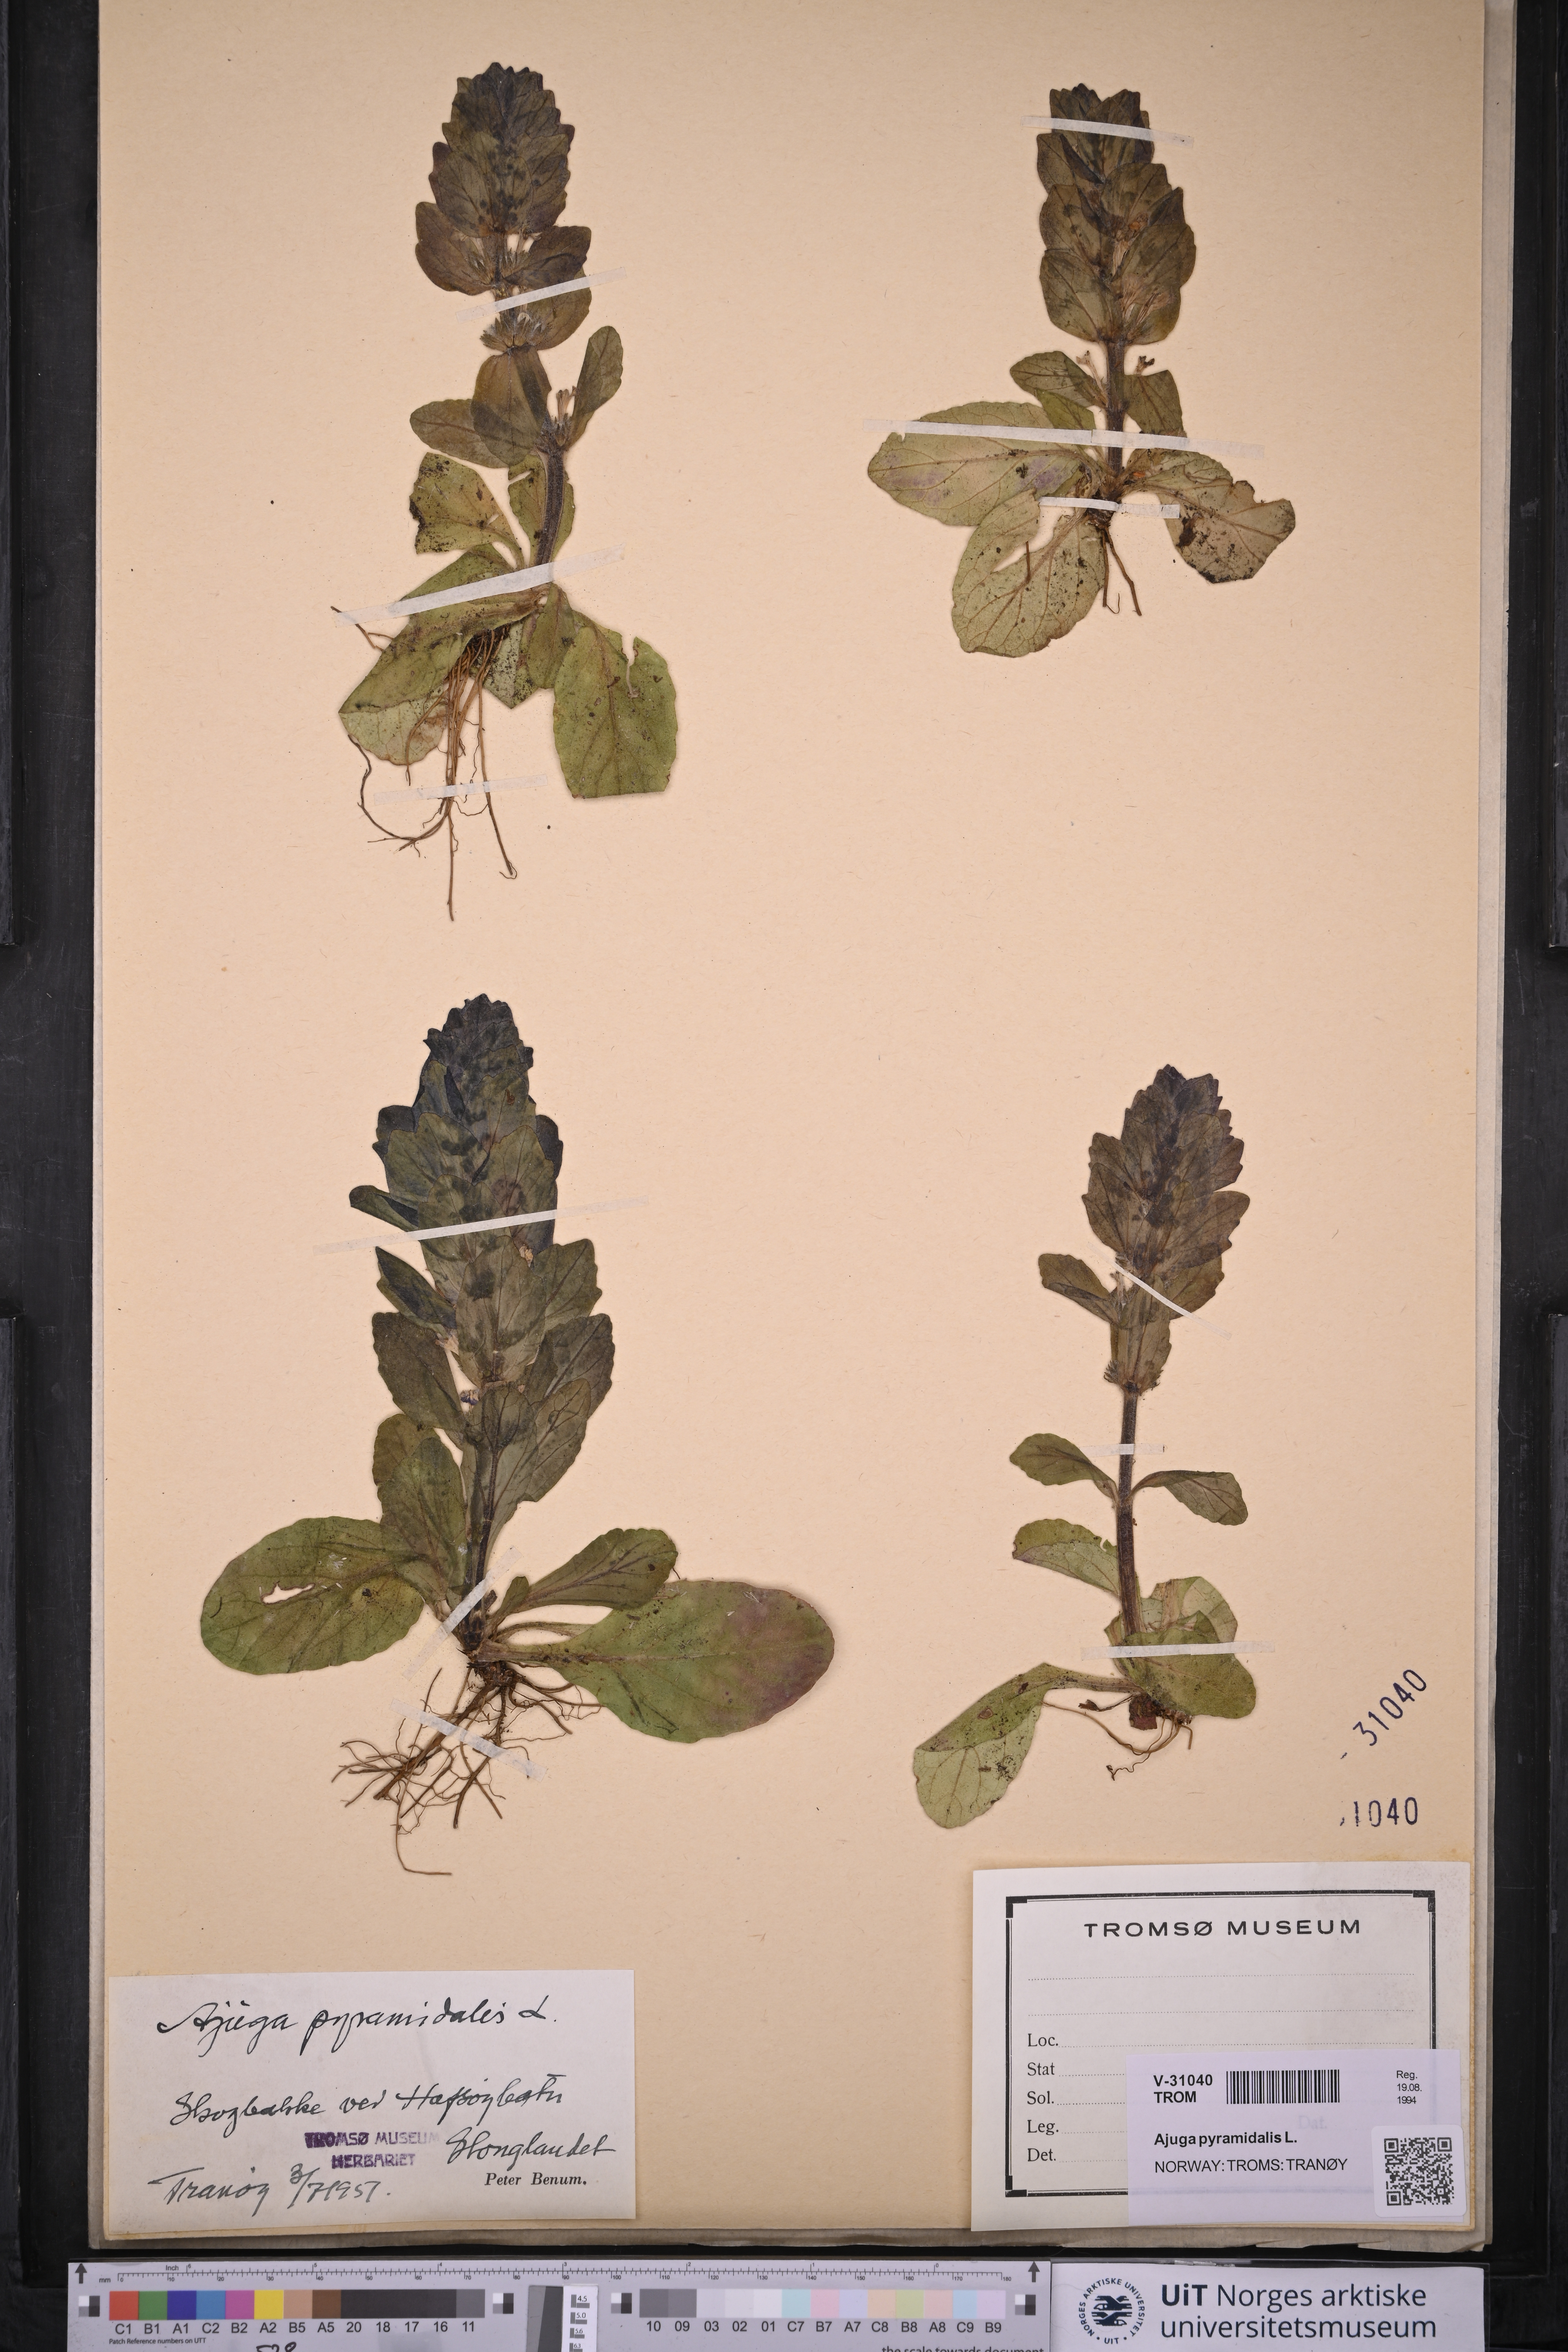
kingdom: Plantae
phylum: Tracheophyta
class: Magnoliopsida
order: Lamiales
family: Lamiaceae
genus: Ajuga
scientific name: Ajuga pyramidalis
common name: Pyramid bugle
